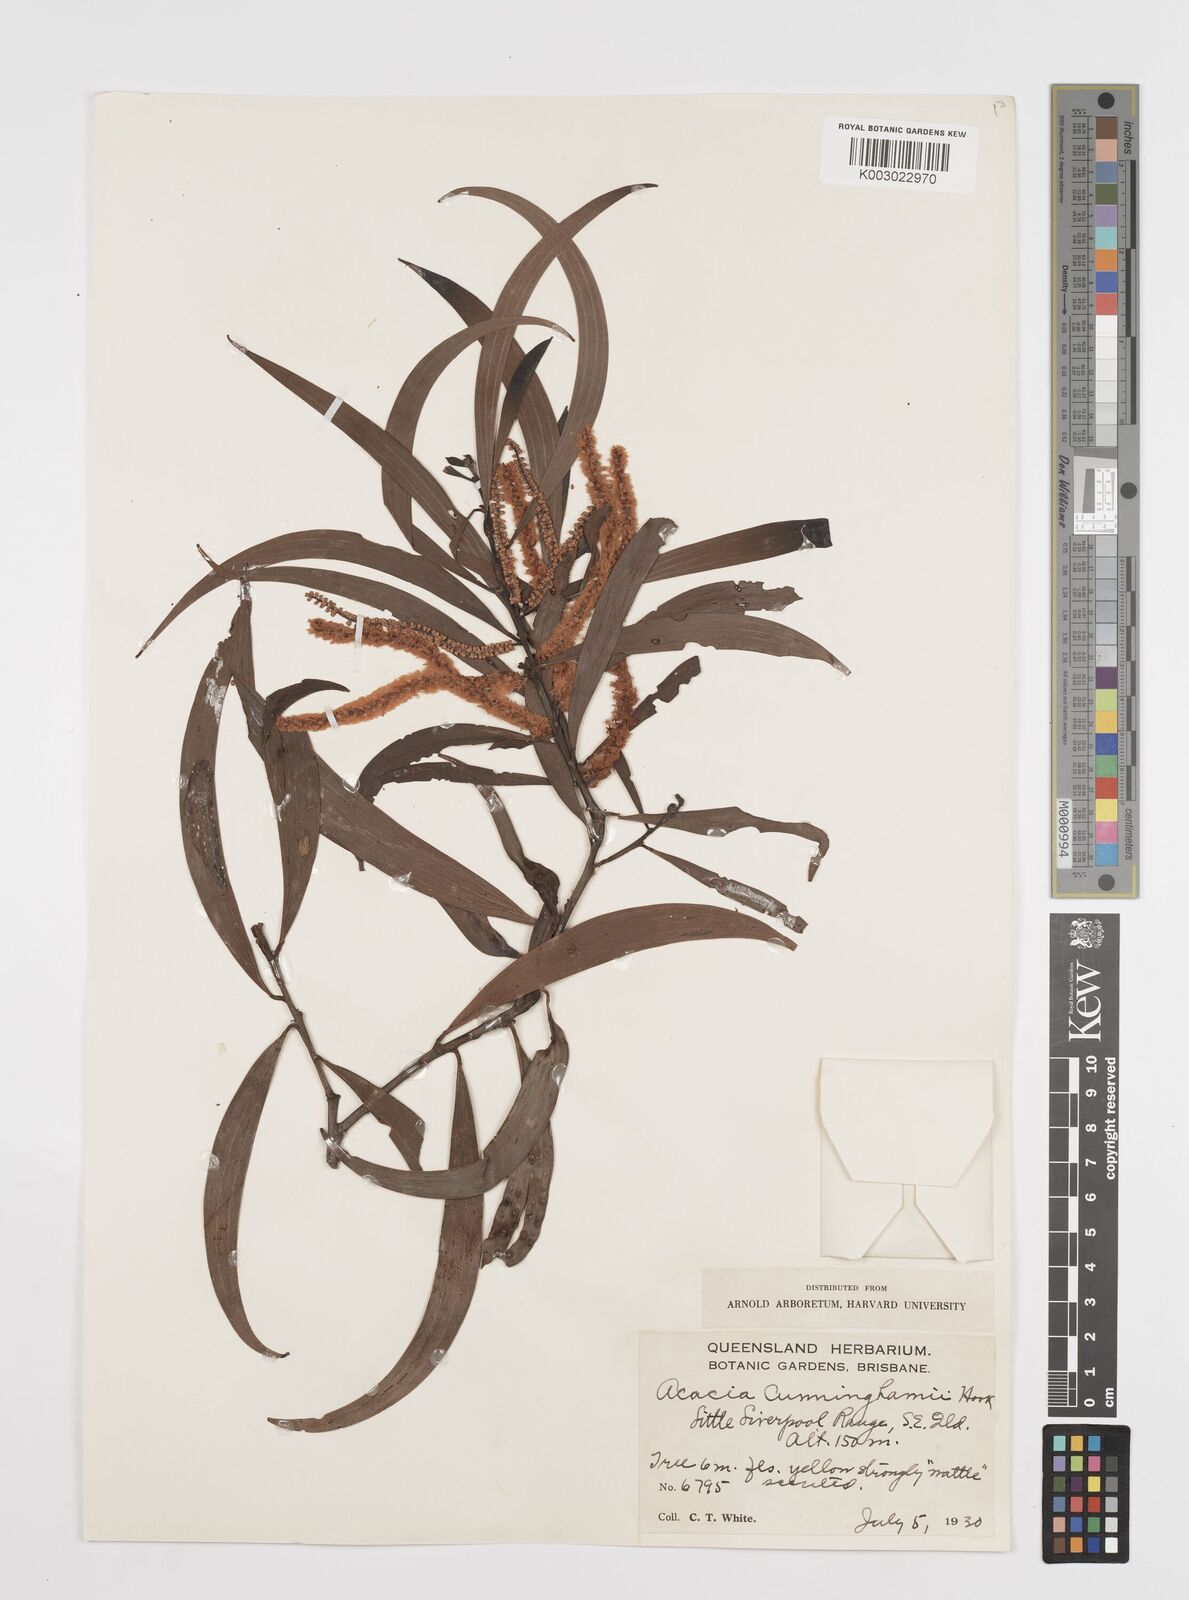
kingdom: Plantae
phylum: Tracheophyta
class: Magnoliopsida
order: Fabales
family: Fabaceae
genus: Acacia
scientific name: Acacia longispicata
